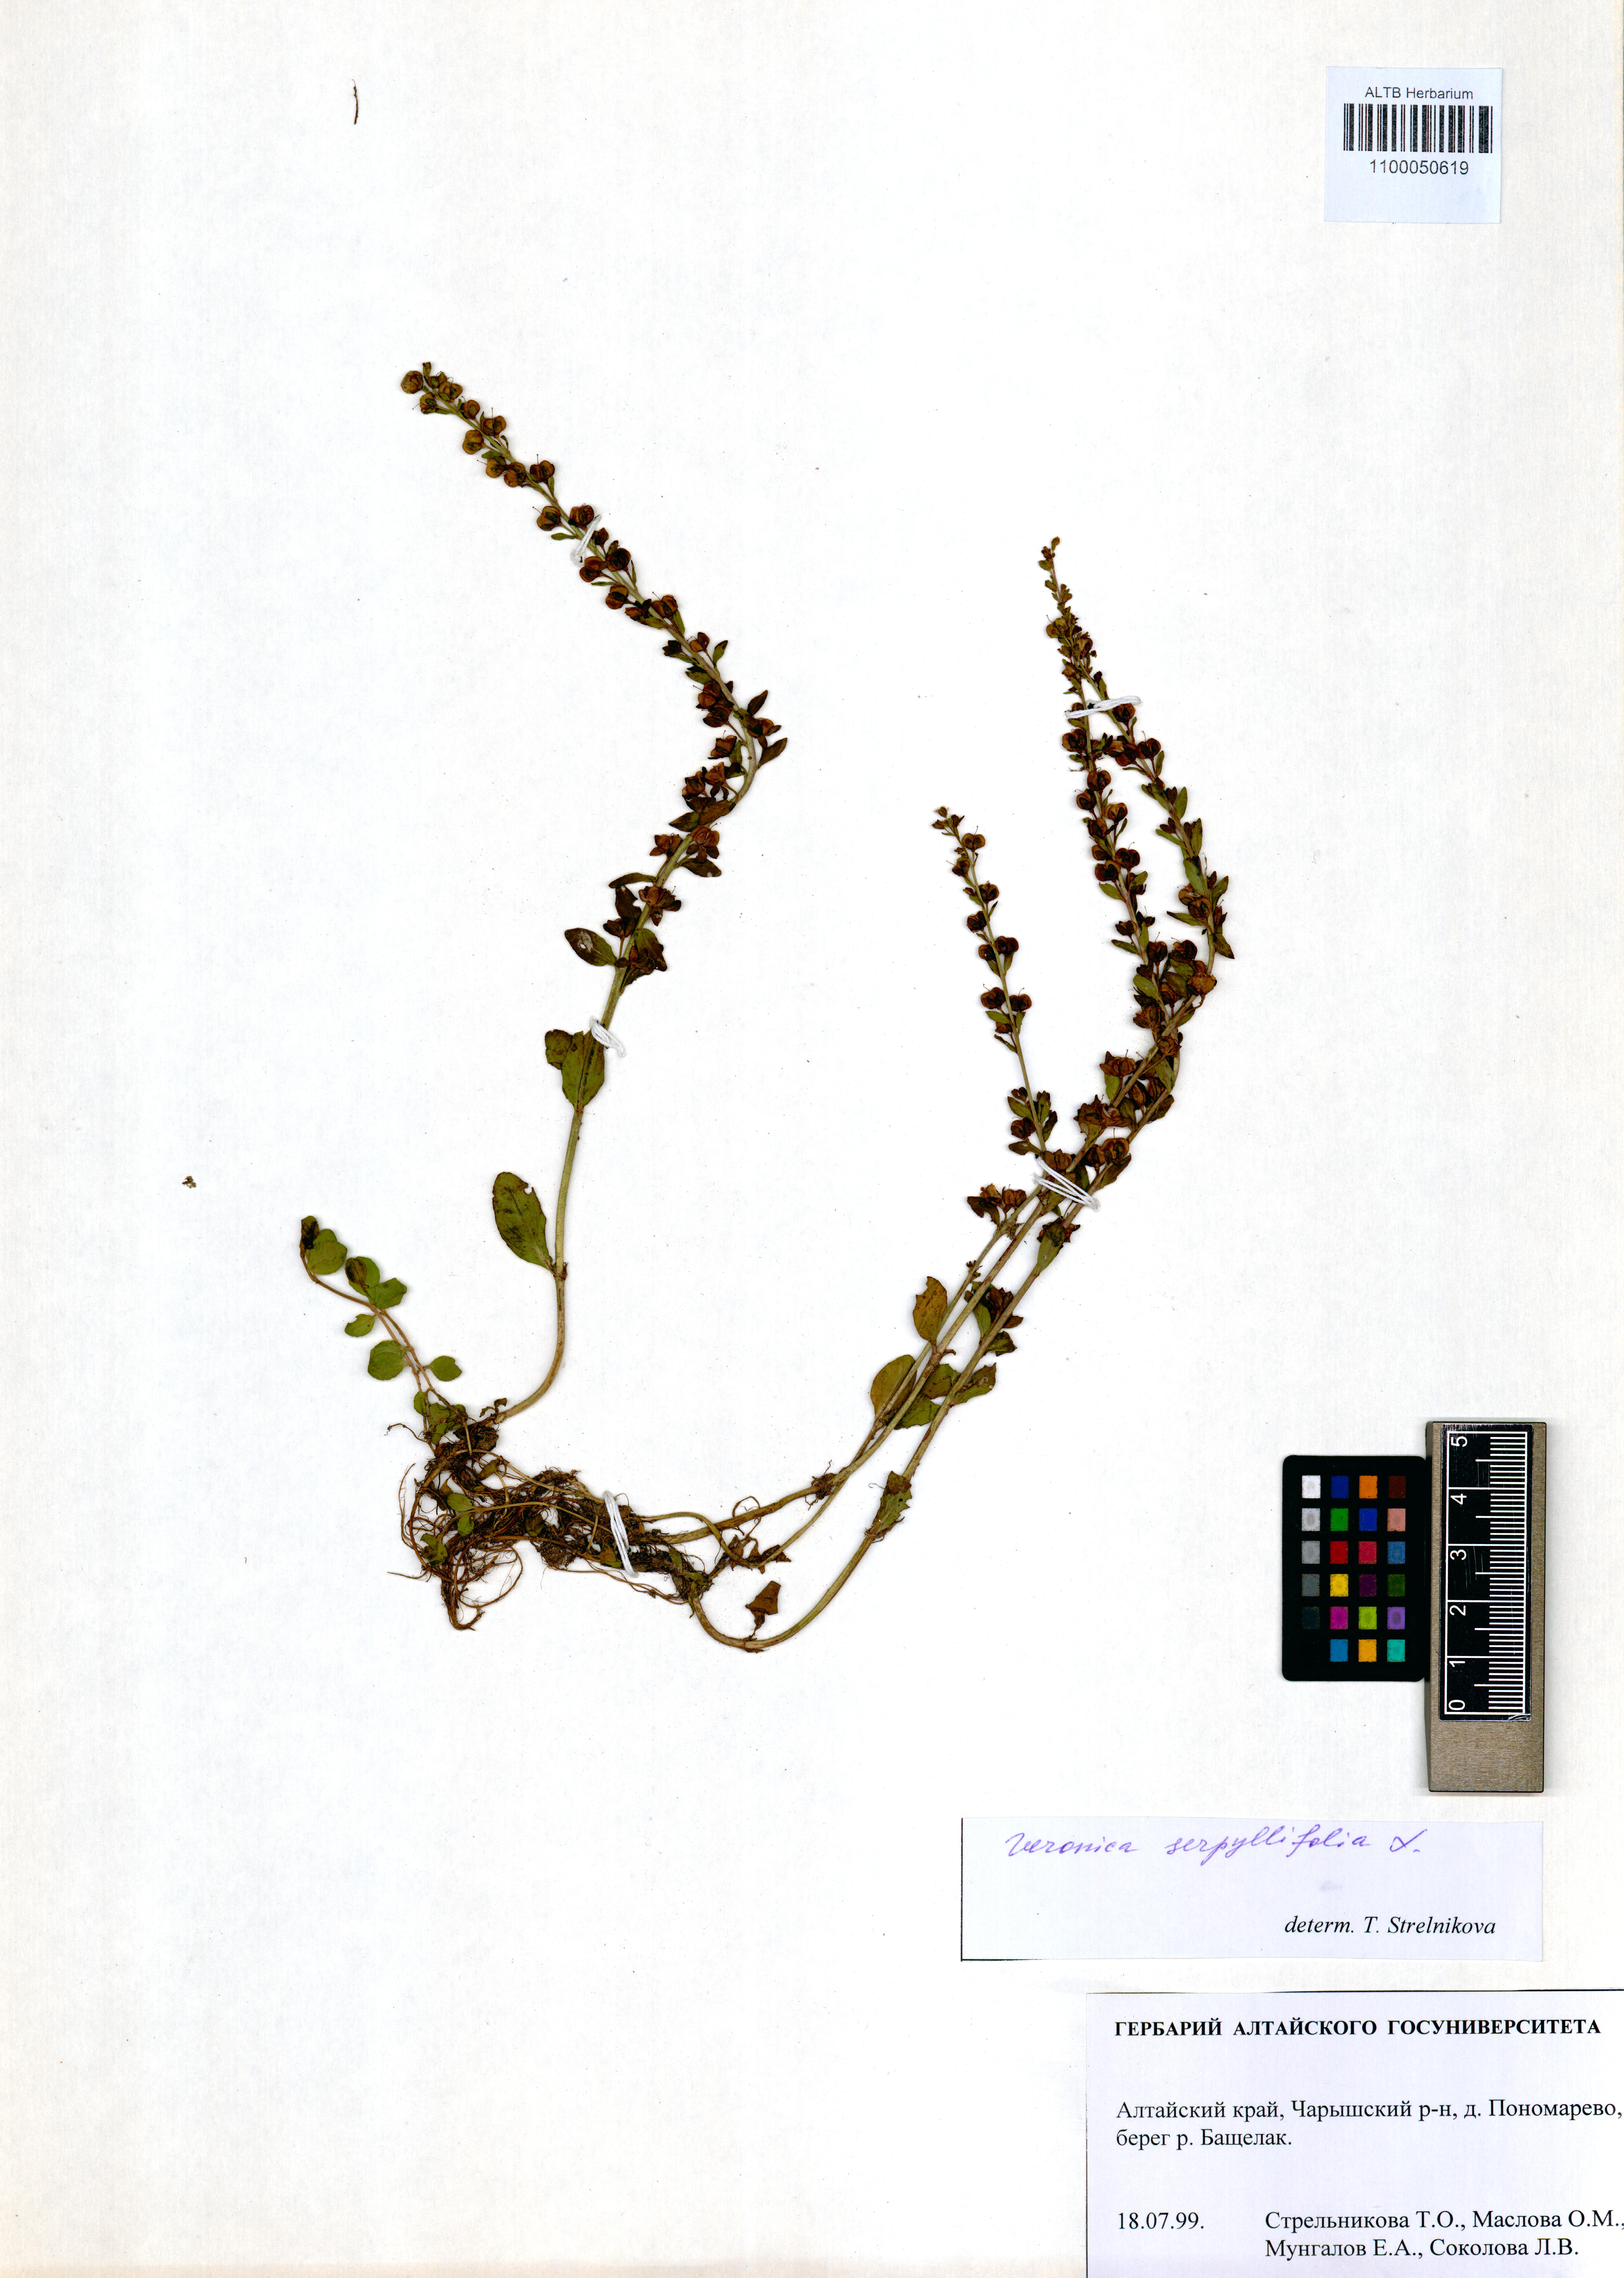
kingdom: Plantae
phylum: Tracheophyta
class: Magnoliopsida
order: Lamiales
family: Plantaginaceae
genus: Veronica
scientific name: Veronica serpyllifolia
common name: Thyme-leaved speedwell
